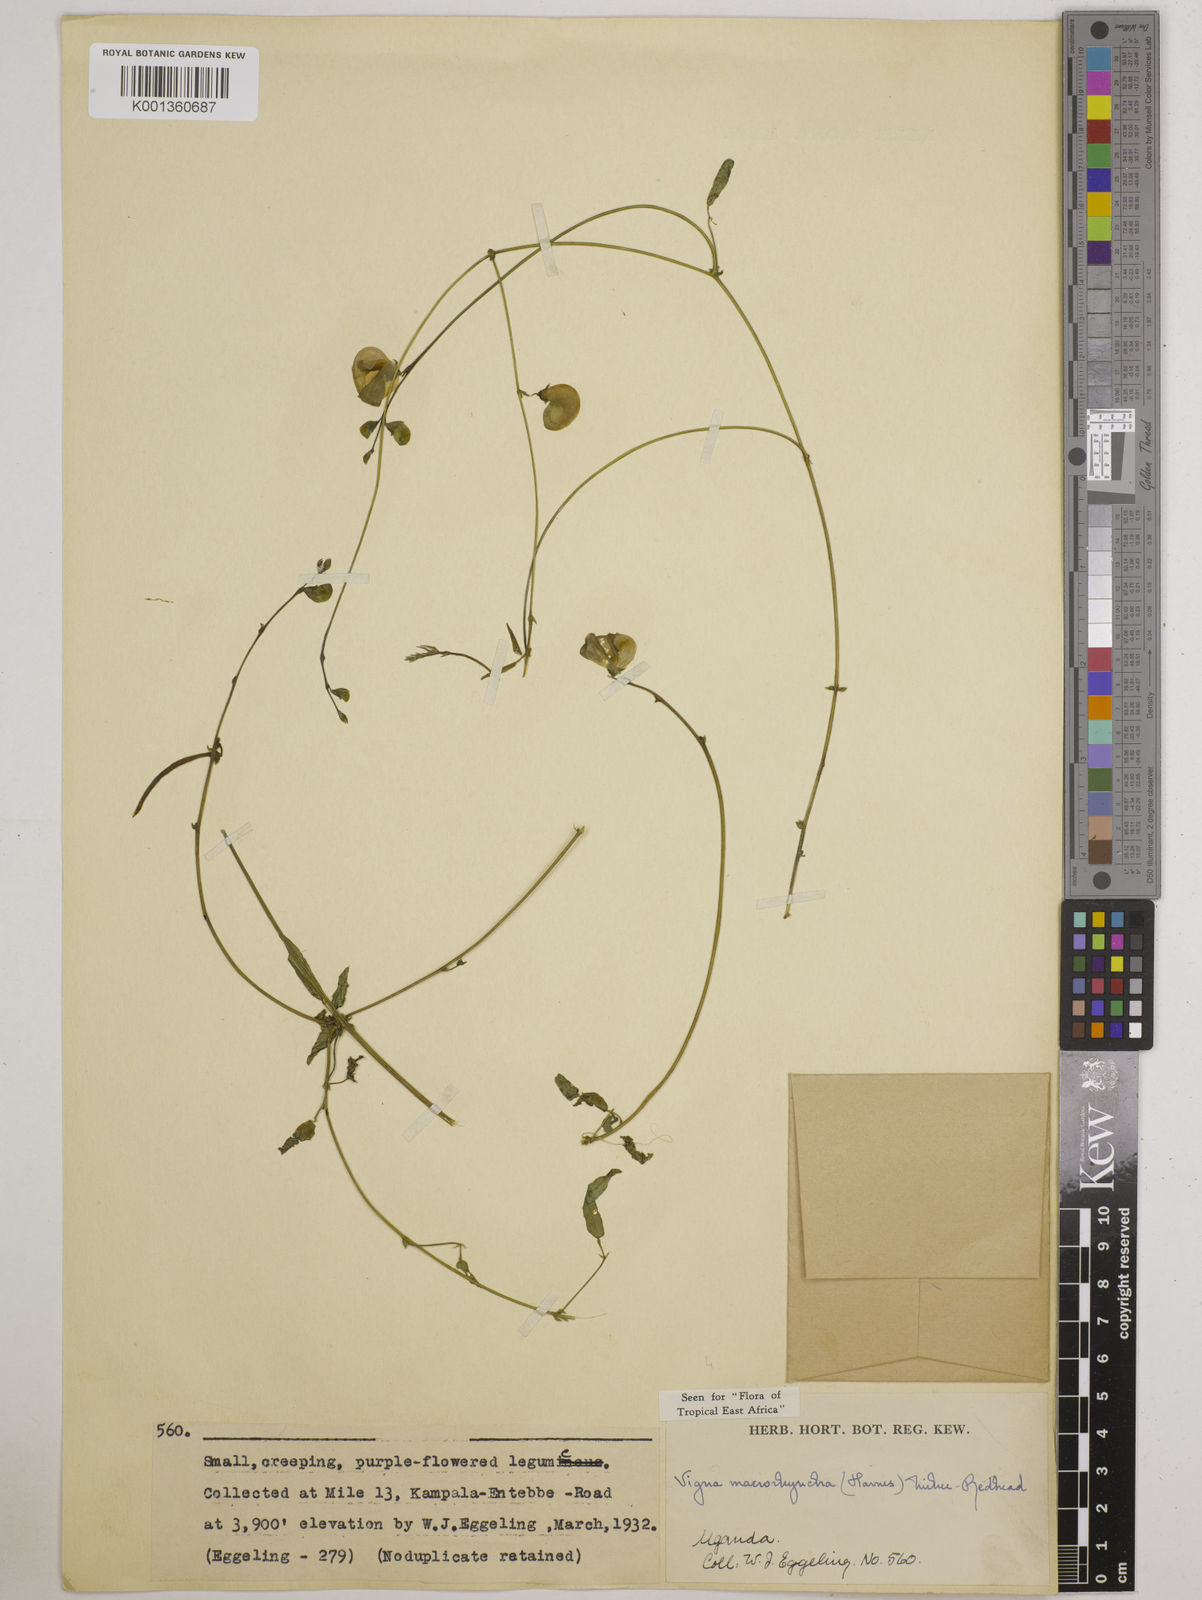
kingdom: Plantae
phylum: Tracheophyta
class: Magnoliopsida
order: Fabales
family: Fabaceae
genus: Wajira
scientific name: Wajira grahamiana
